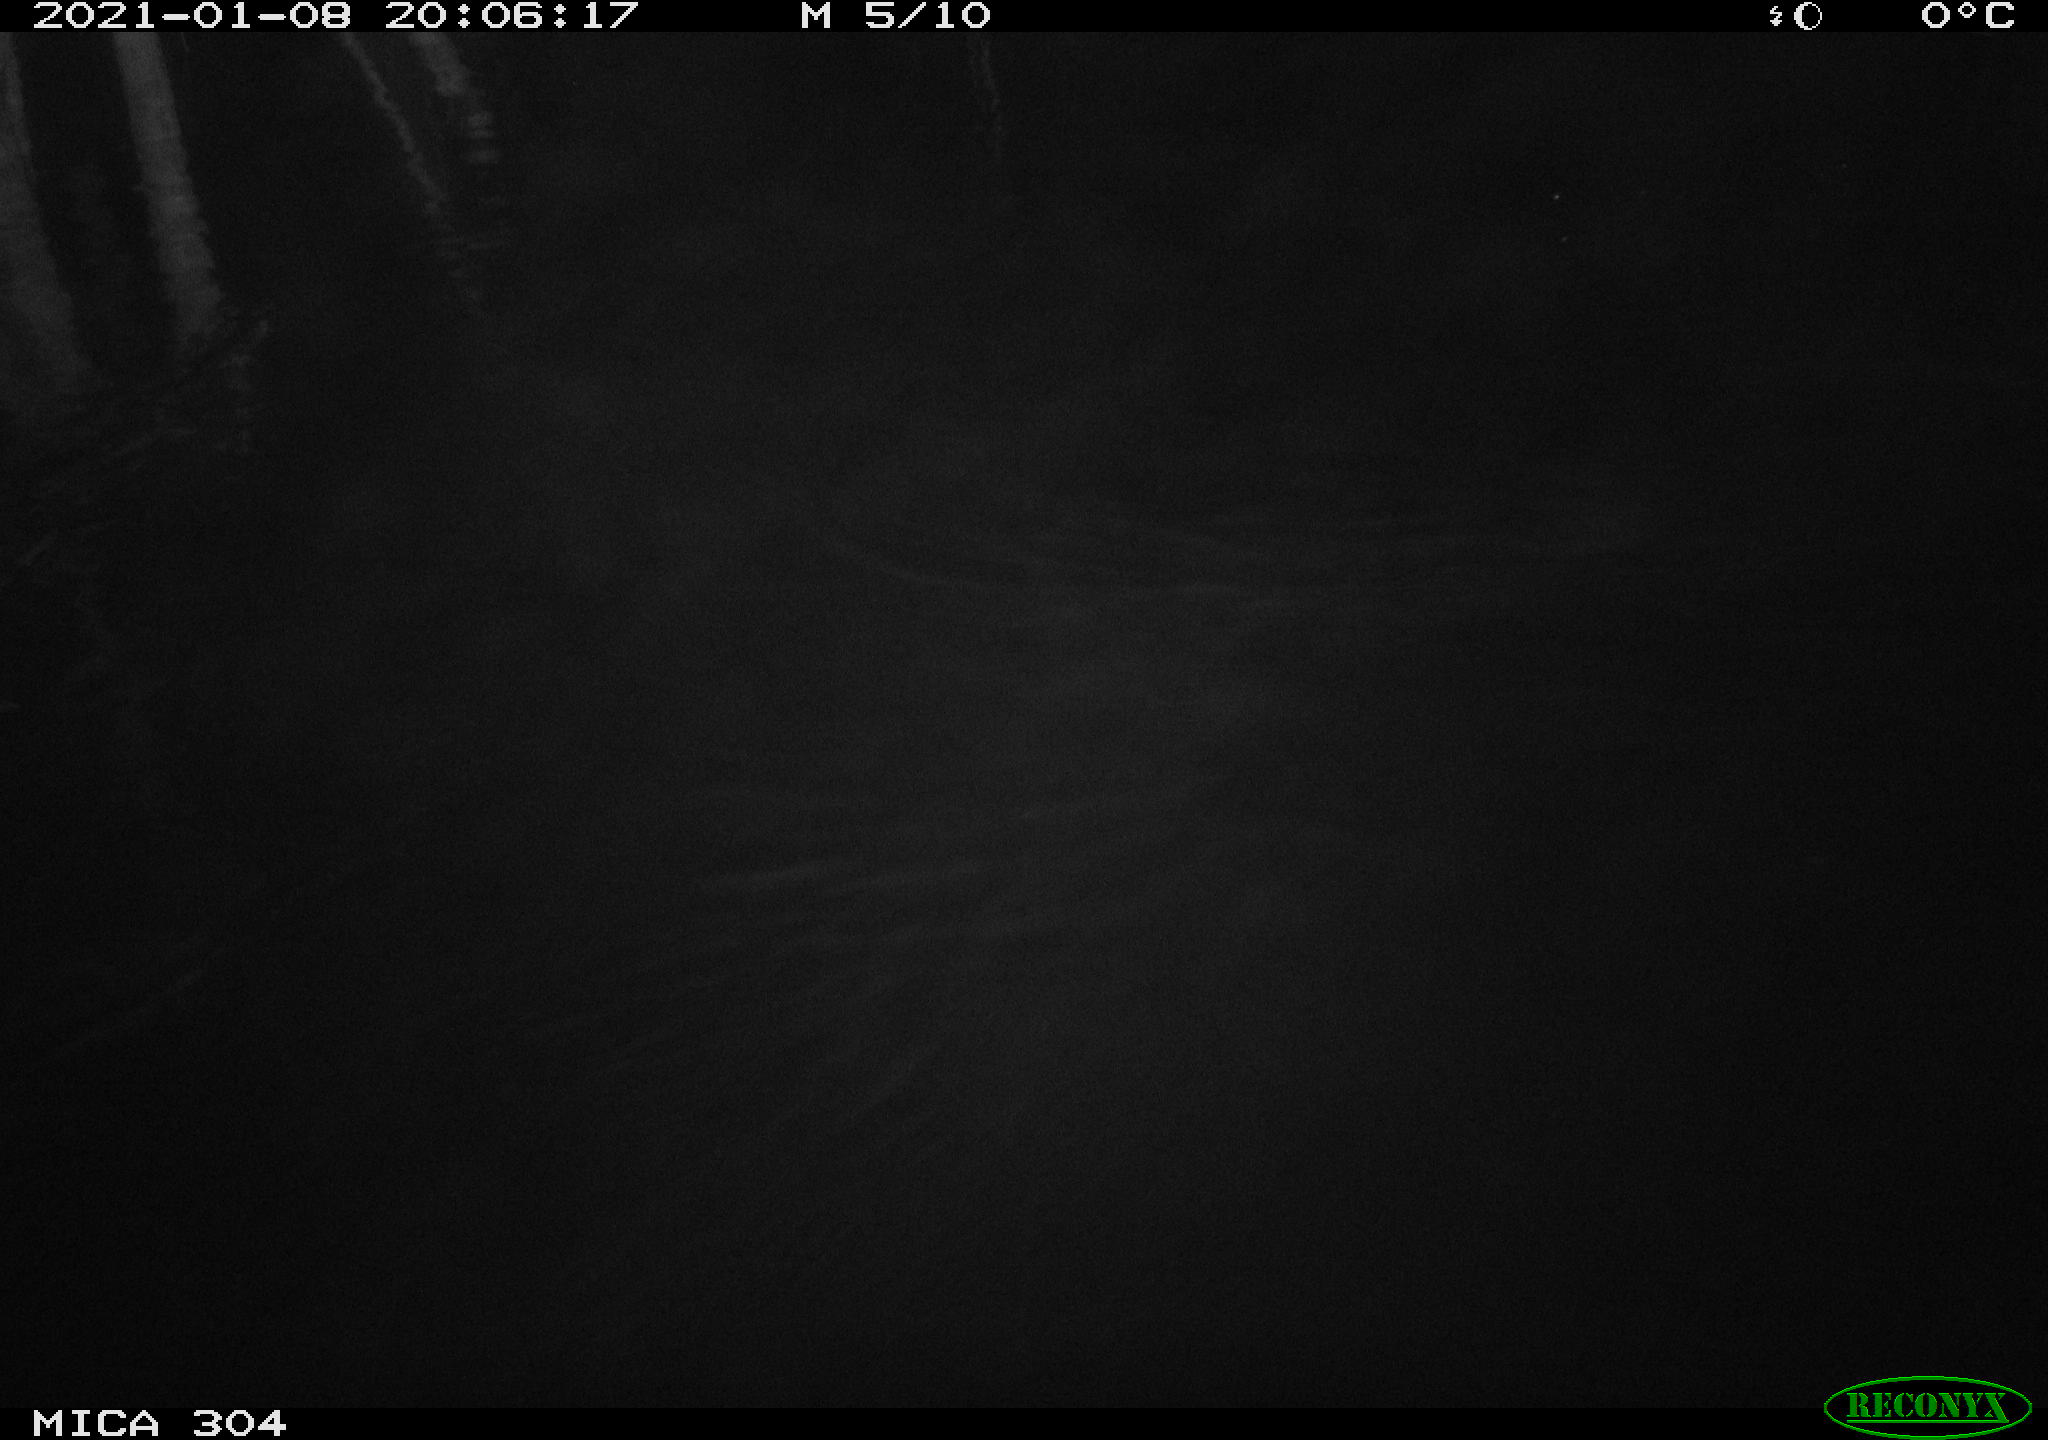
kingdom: Animalia
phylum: Chordata
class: Mammalia
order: Rodentia
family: Muridae
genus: Rattus
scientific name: Rattus norvegicus
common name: Brown rat
